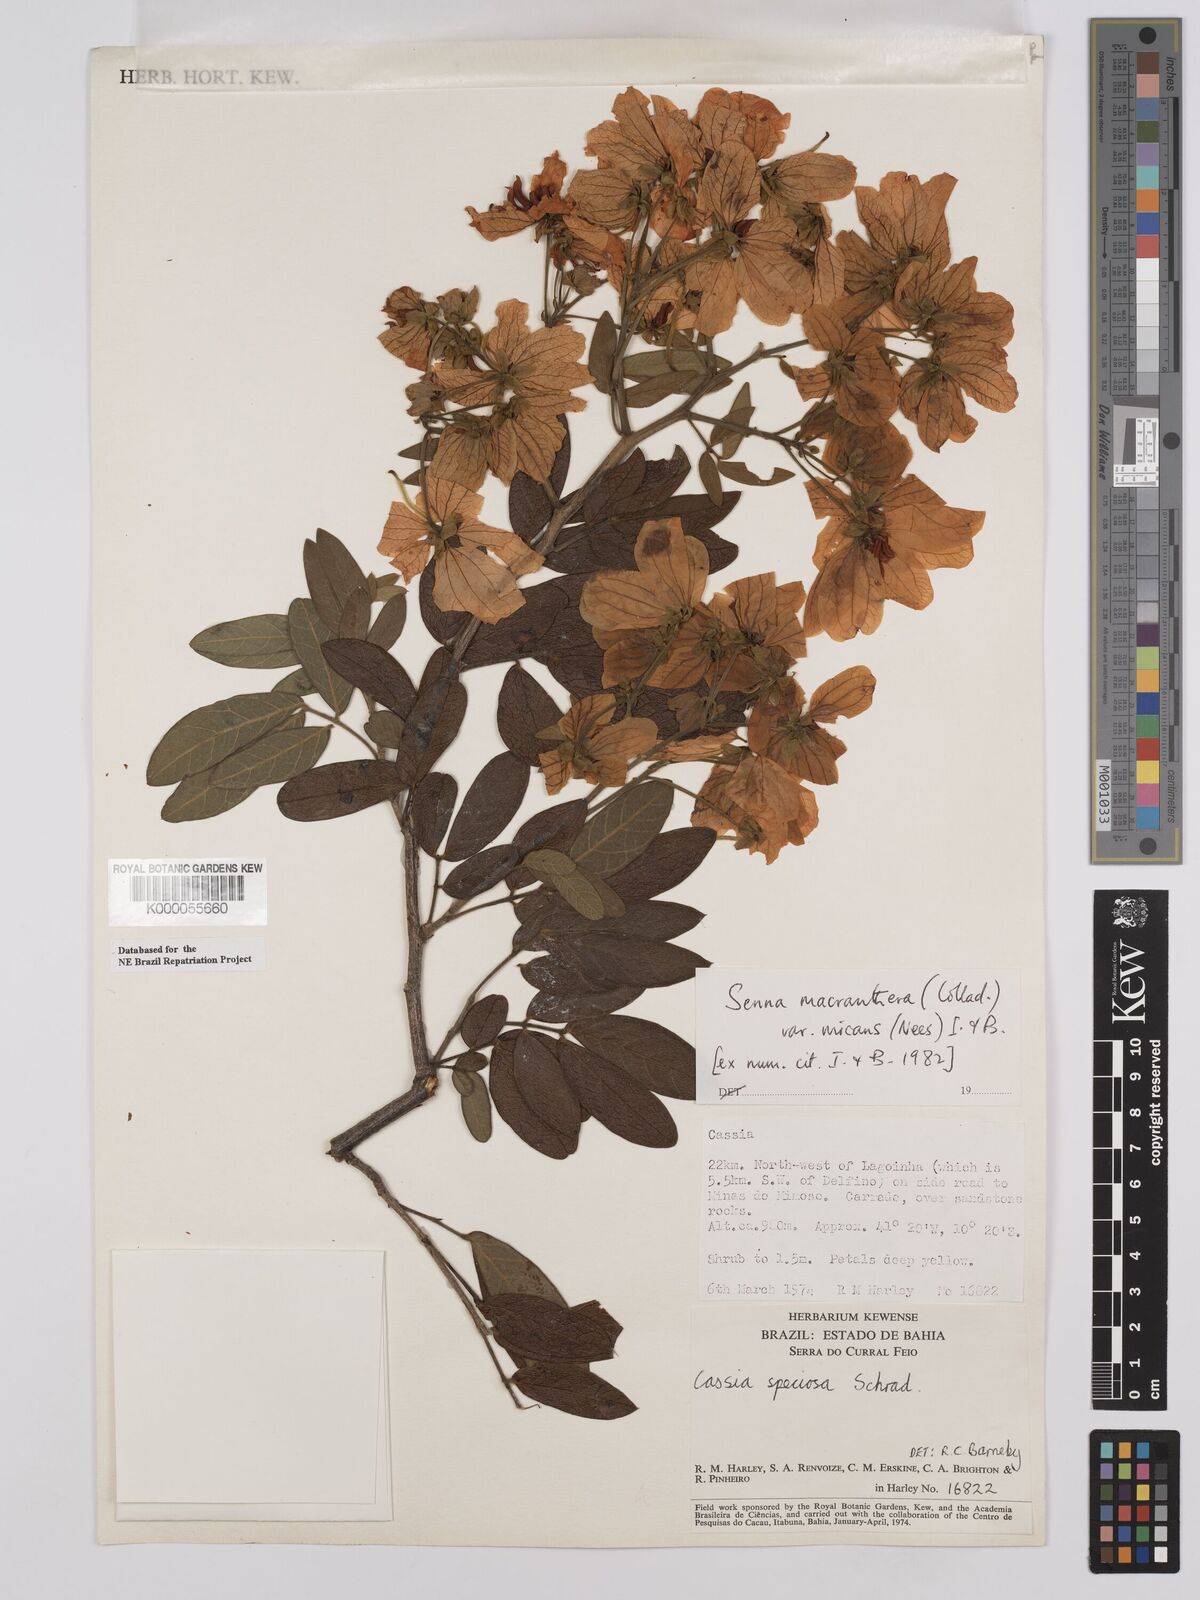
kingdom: Plantae
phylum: Tracheophyta
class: Magnoliopsida
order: Fabales
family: Fabaceae
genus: Senna
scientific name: Senna macranthera
